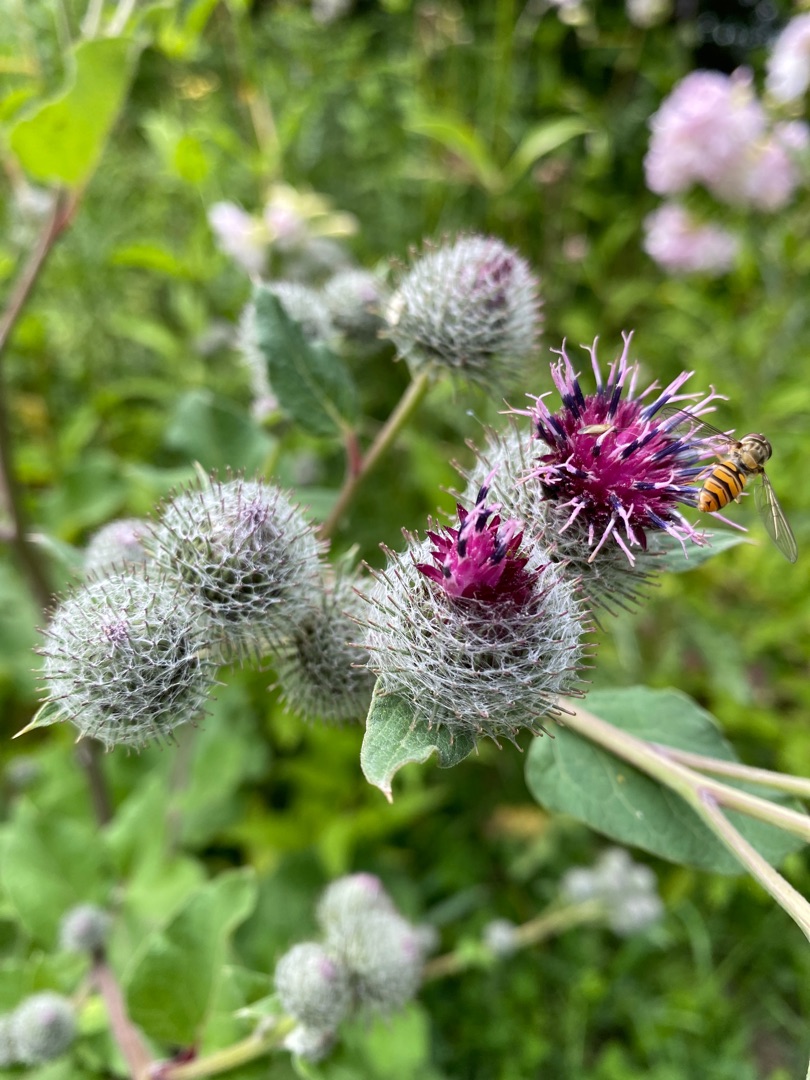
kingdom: Plantae
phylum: Tracheophyta
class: Magnoliopsida
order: Asterales
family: Asteraceae
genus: Arctium
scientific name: Arctium tomentosum
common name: Filtet burre
